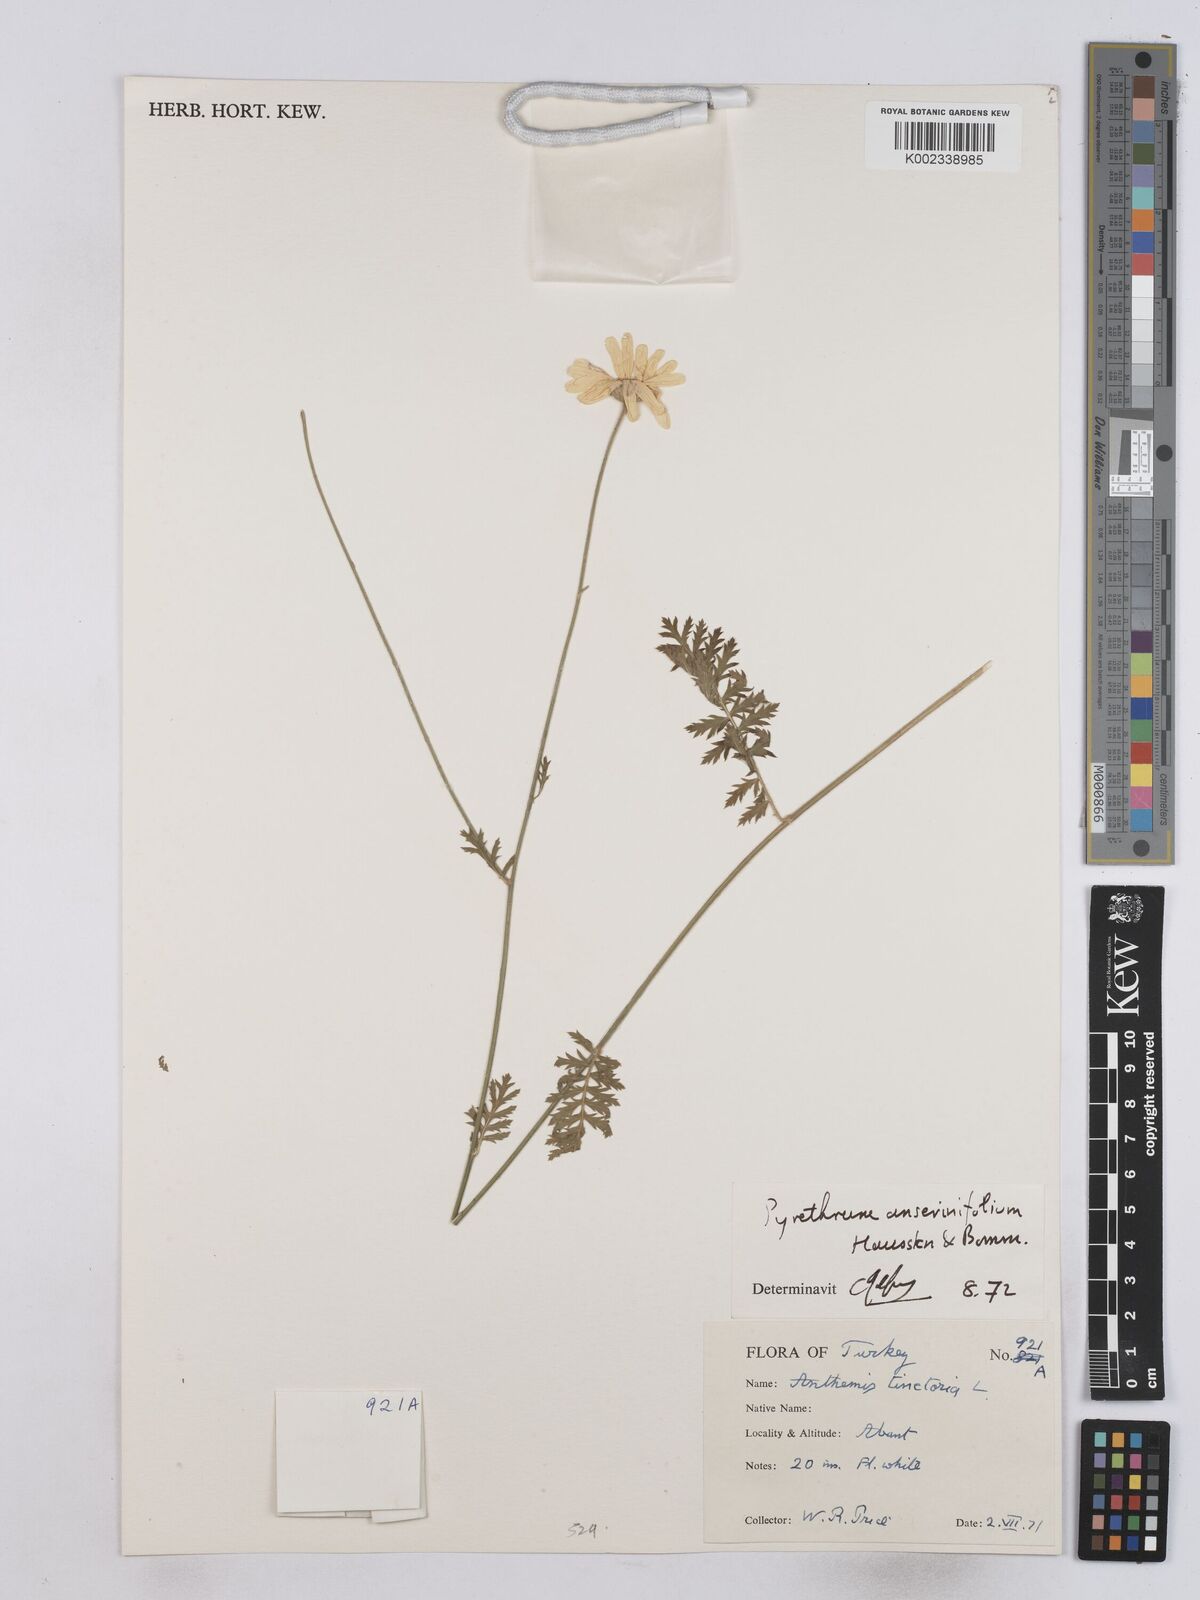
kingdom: Plantae
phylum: Tracheophyta
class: Magnoliopsida
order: Asterales
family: Asteraceae
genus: Tanacetum
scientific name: Tanacetum poteriifolium
